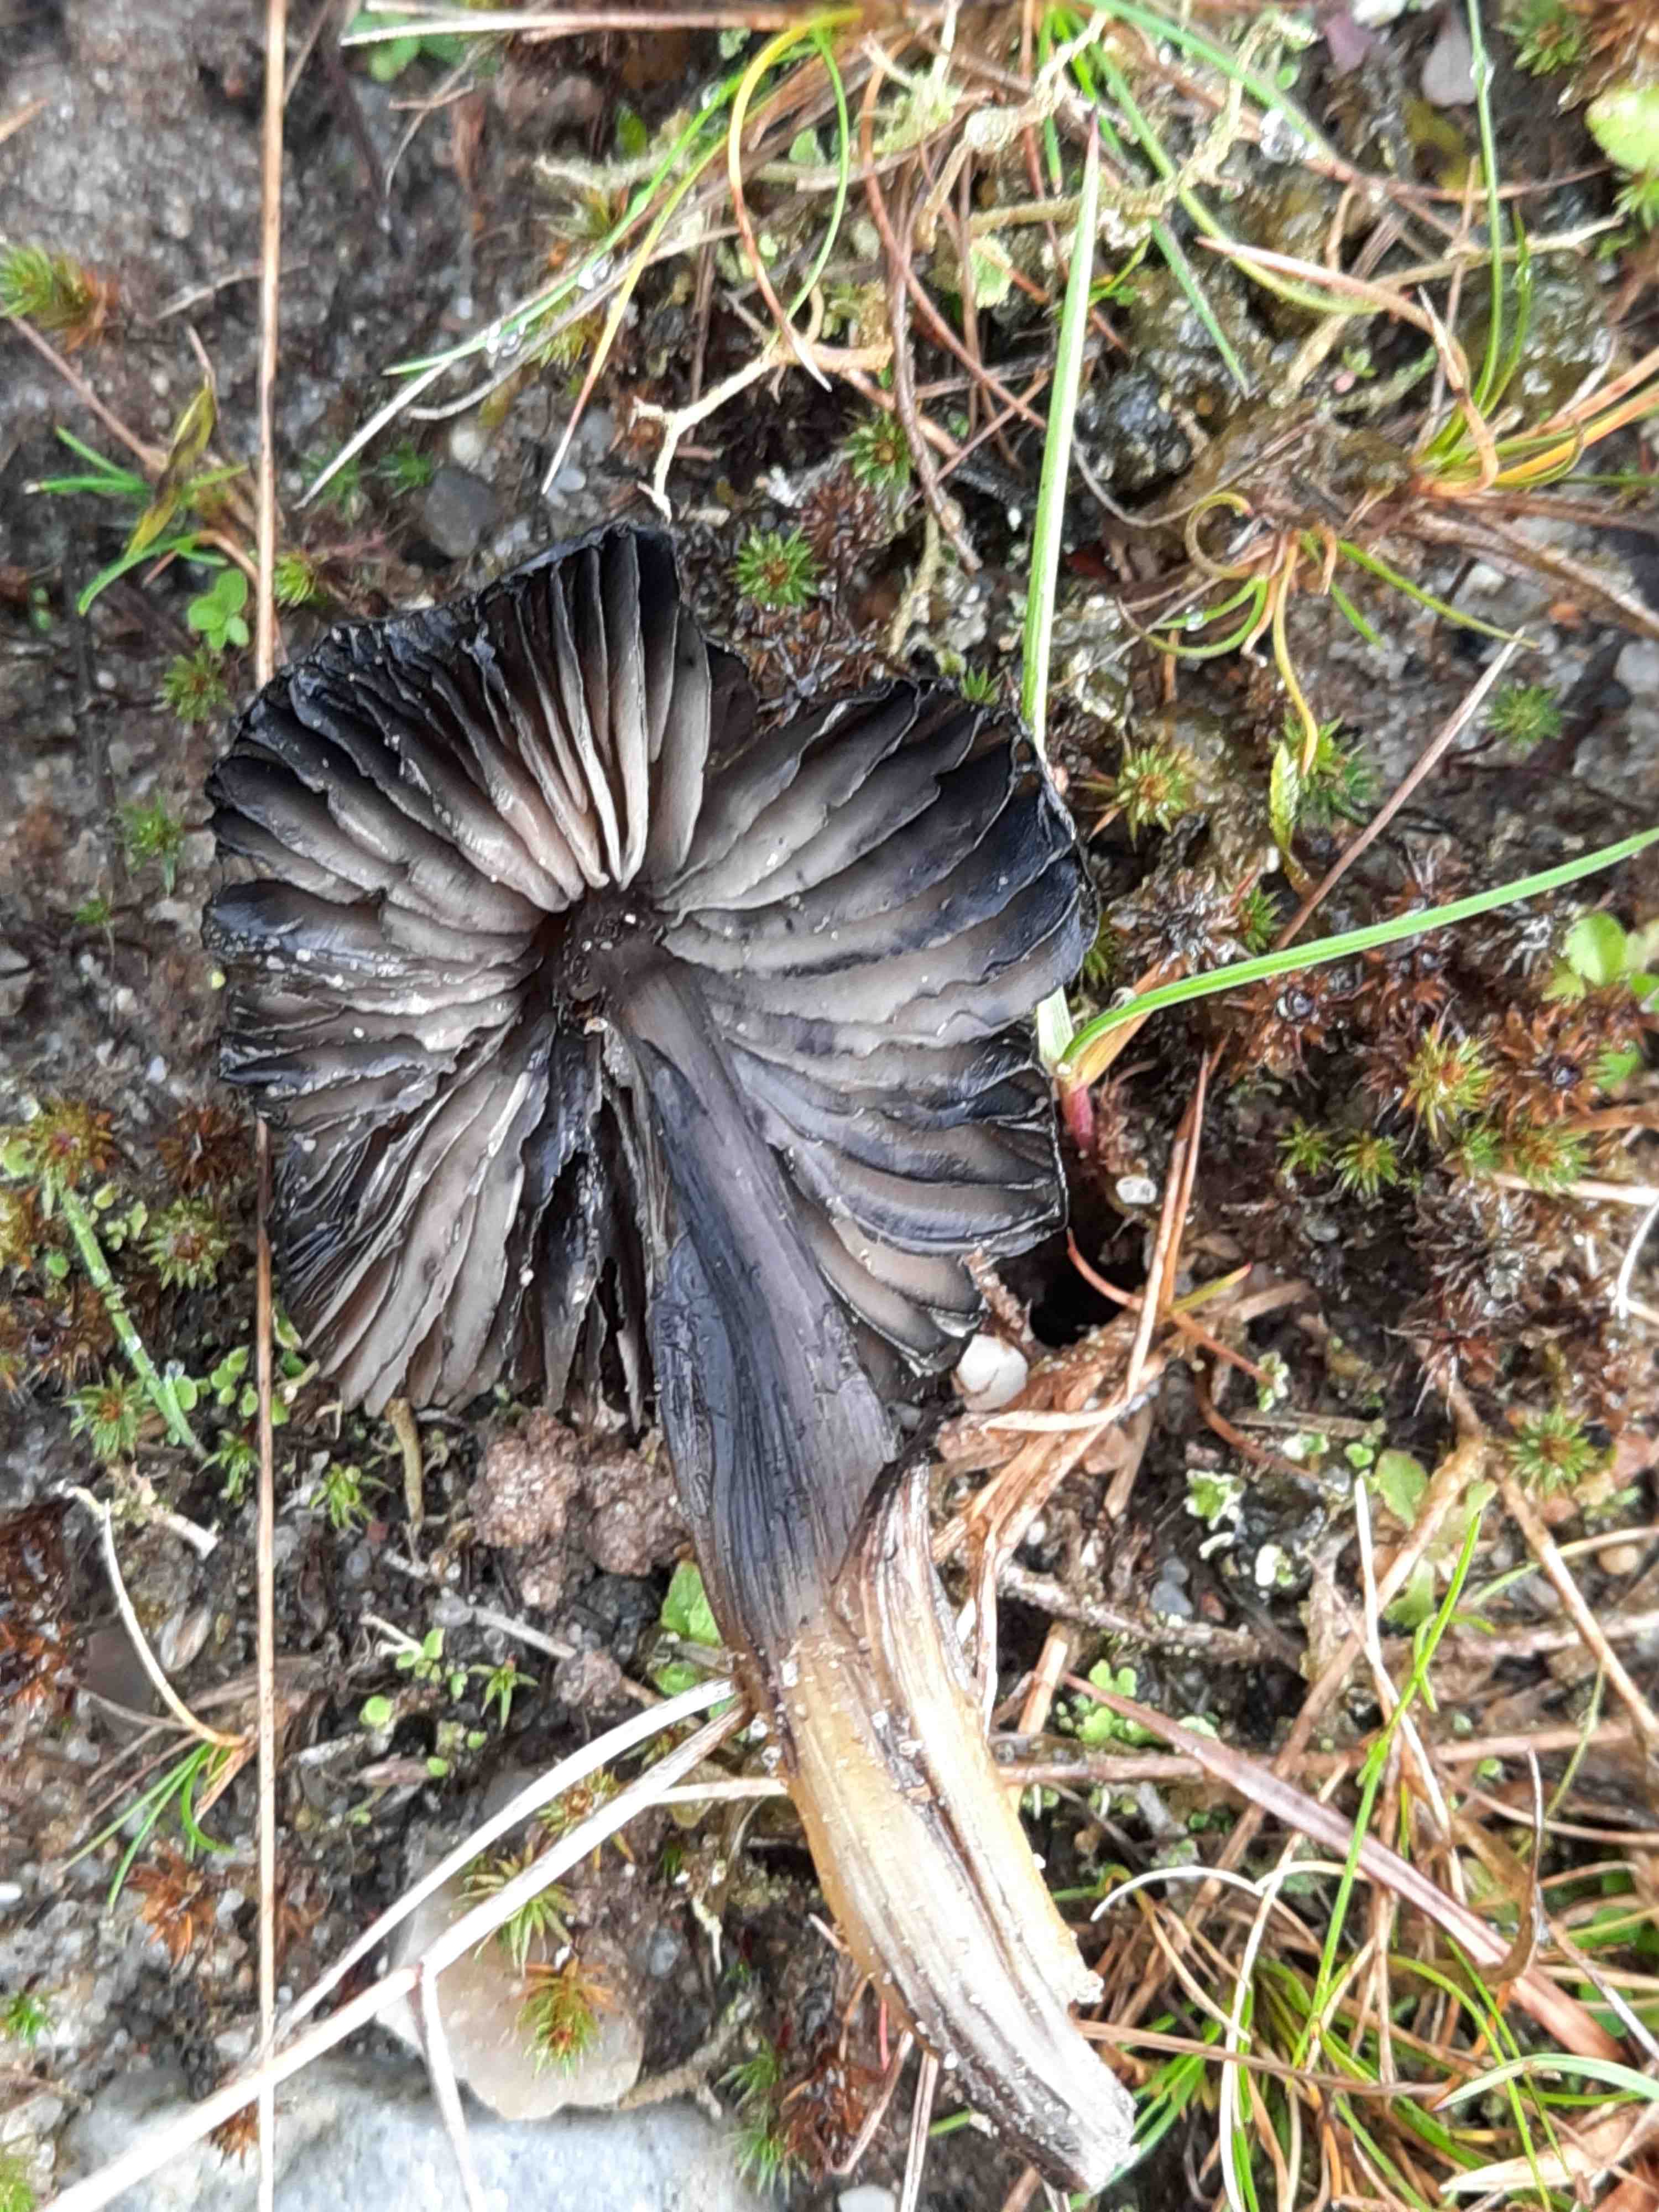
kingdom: Fungi
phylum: Basidiomycota
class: Agaricomycetes
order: Agaricales
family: Hygrophoraceae
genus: Hygrocybe
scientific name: Hygrocybe conica
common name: kegle-vokshat
